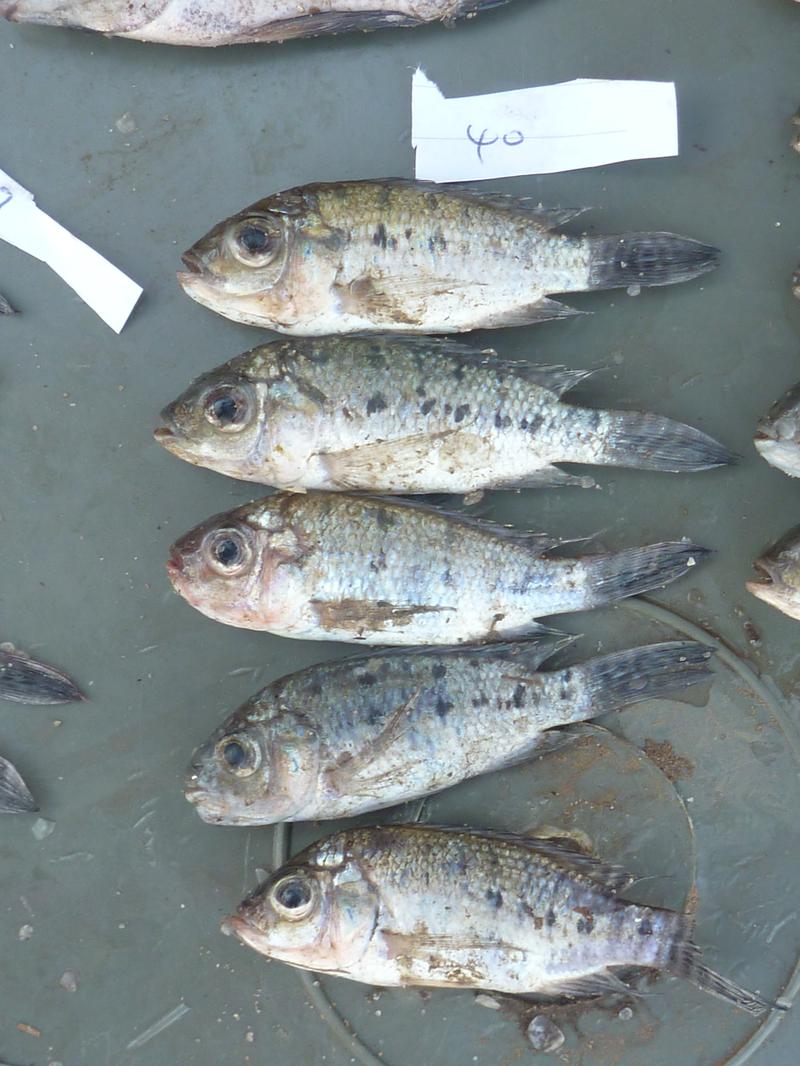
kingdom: Animalia
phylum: Chordata
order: Perciformes
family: Cichlidae
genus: Oreochromis
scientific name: Oreochromis korogwe
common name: Korogwe tilapia
